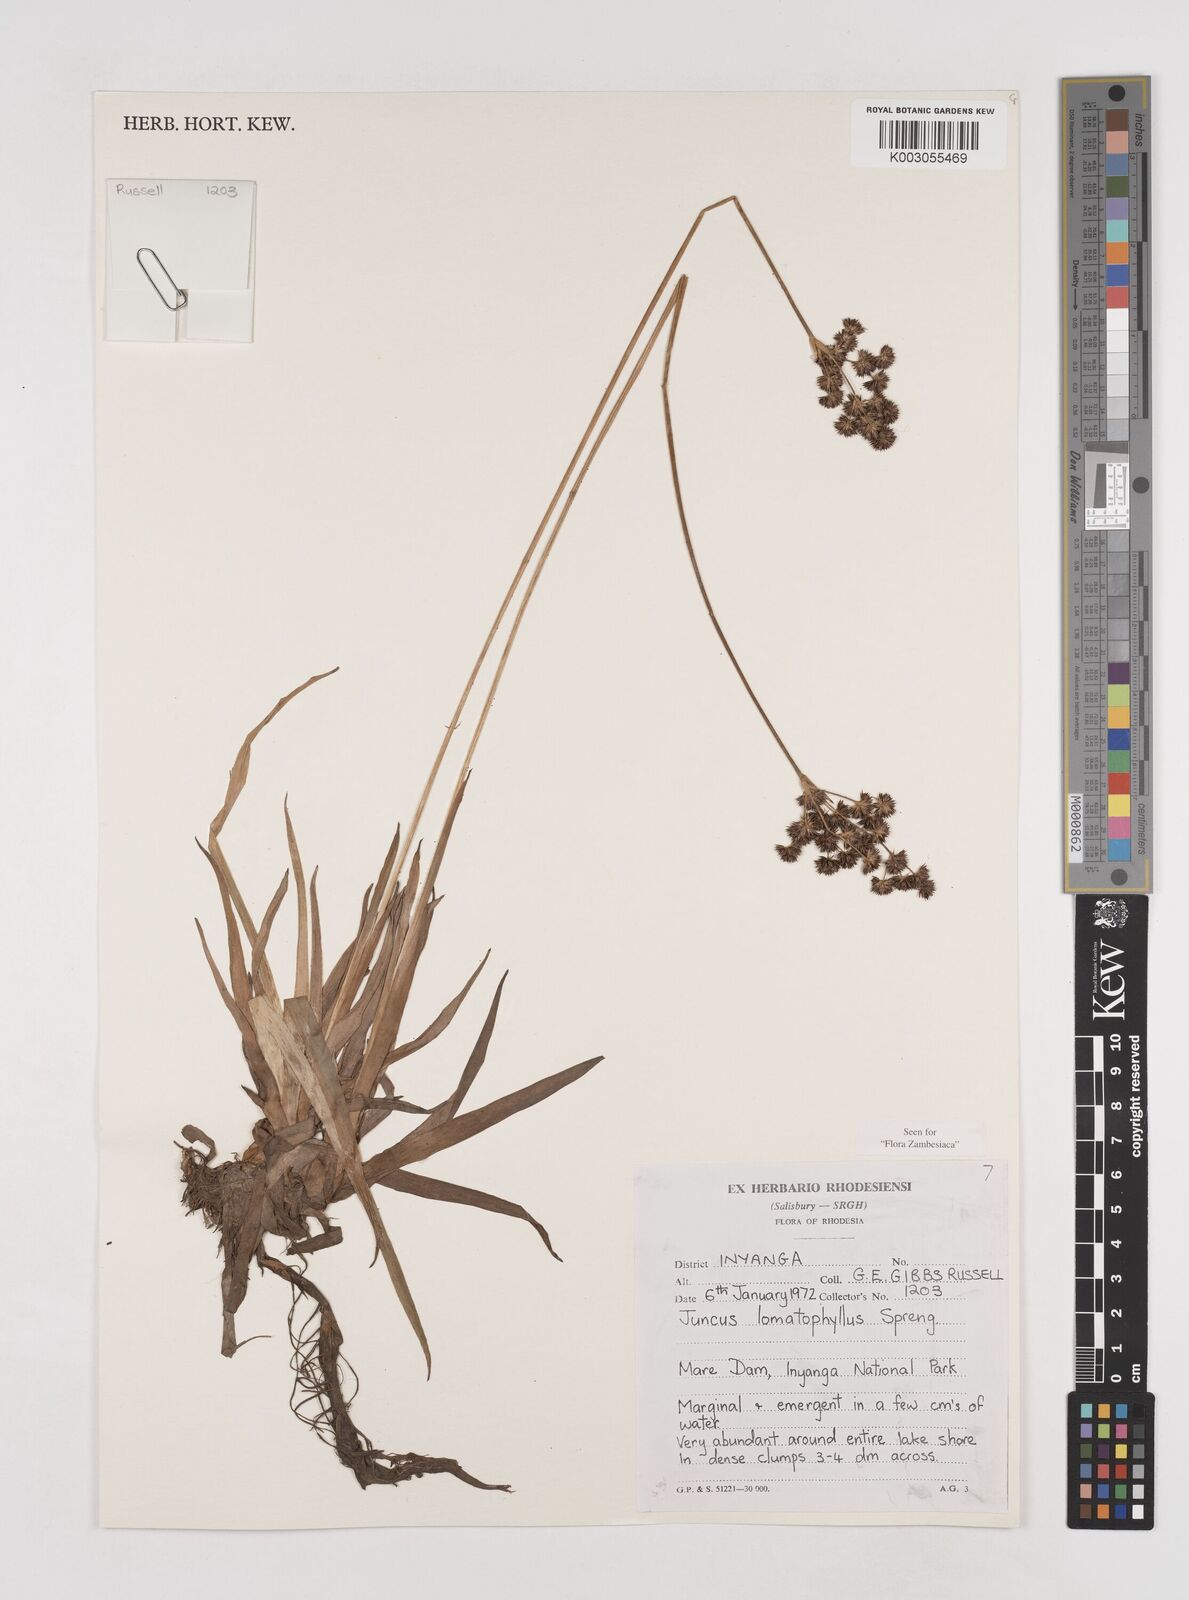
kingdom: Plantae
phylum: Tracheophyta
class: Liliopsida
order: Poales
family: Juncaceae
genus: Juncus
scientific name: Juncus lomatophyllus
